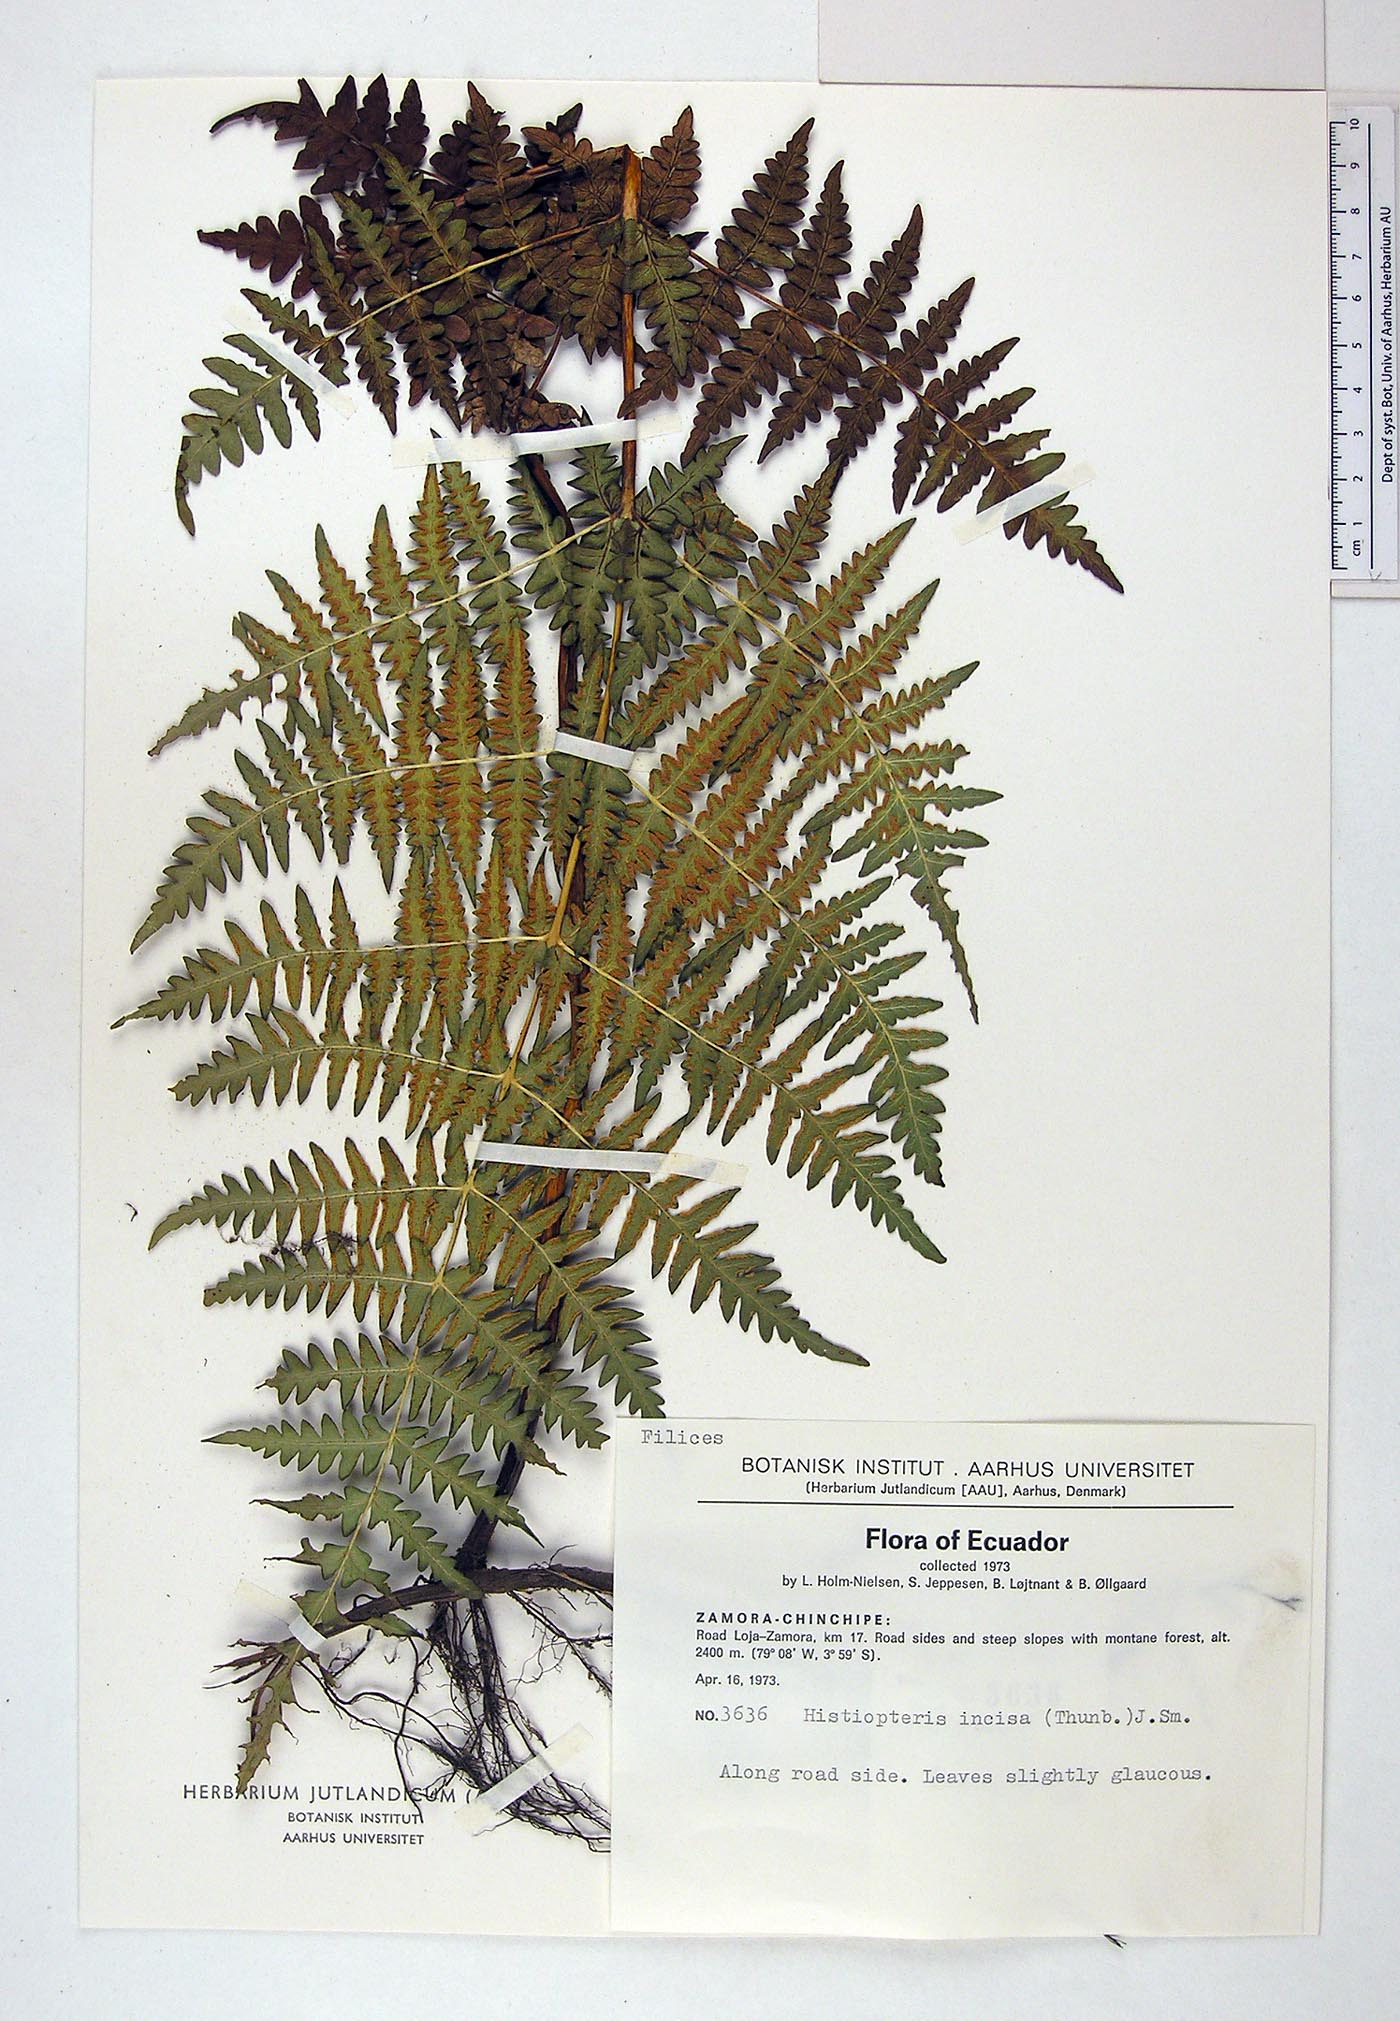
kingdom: Plantae
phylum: Tracheophyta
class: Polypodiopsida
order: Polypodiales
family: Dennstaedtiaceae
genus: Histiopteris
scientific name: Histiopteris incisa
